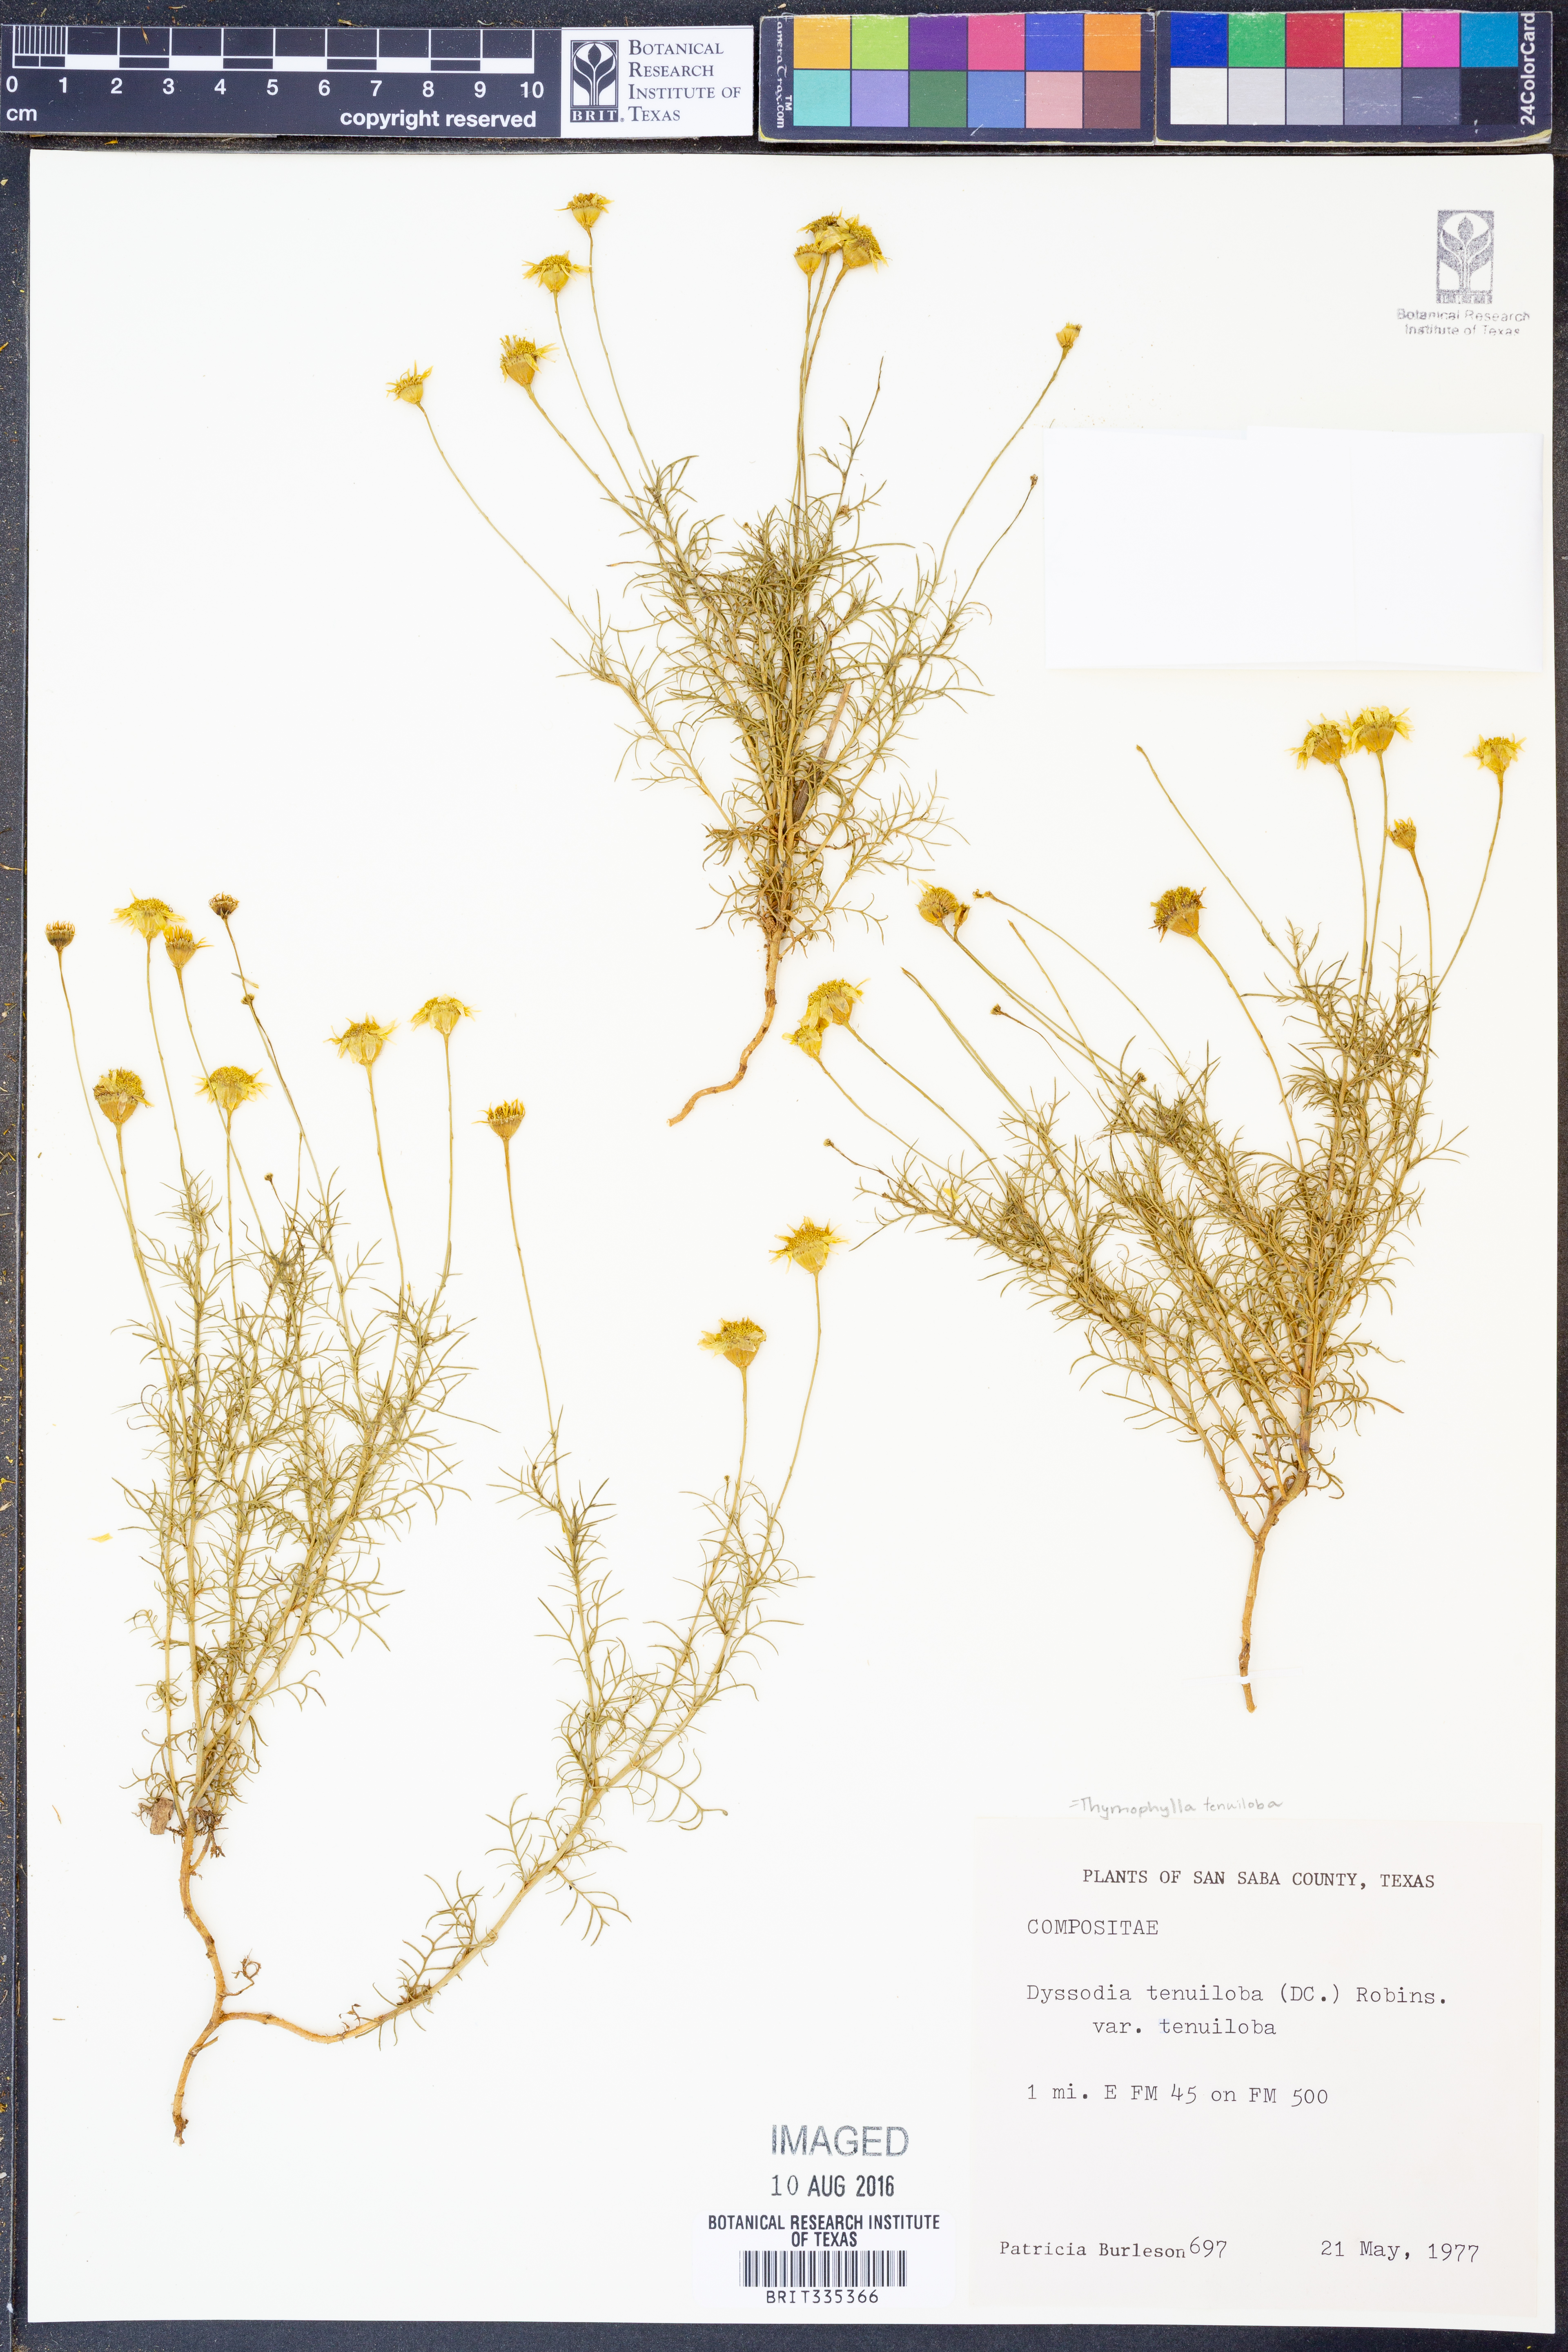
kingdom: Plantae
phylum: Tracheophyta
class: Magnoliopsida
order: Asterales
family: Asteraceae
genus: Thymophylla
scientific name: Thymophylla tenuiloba
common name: Dahlberg's daisy
